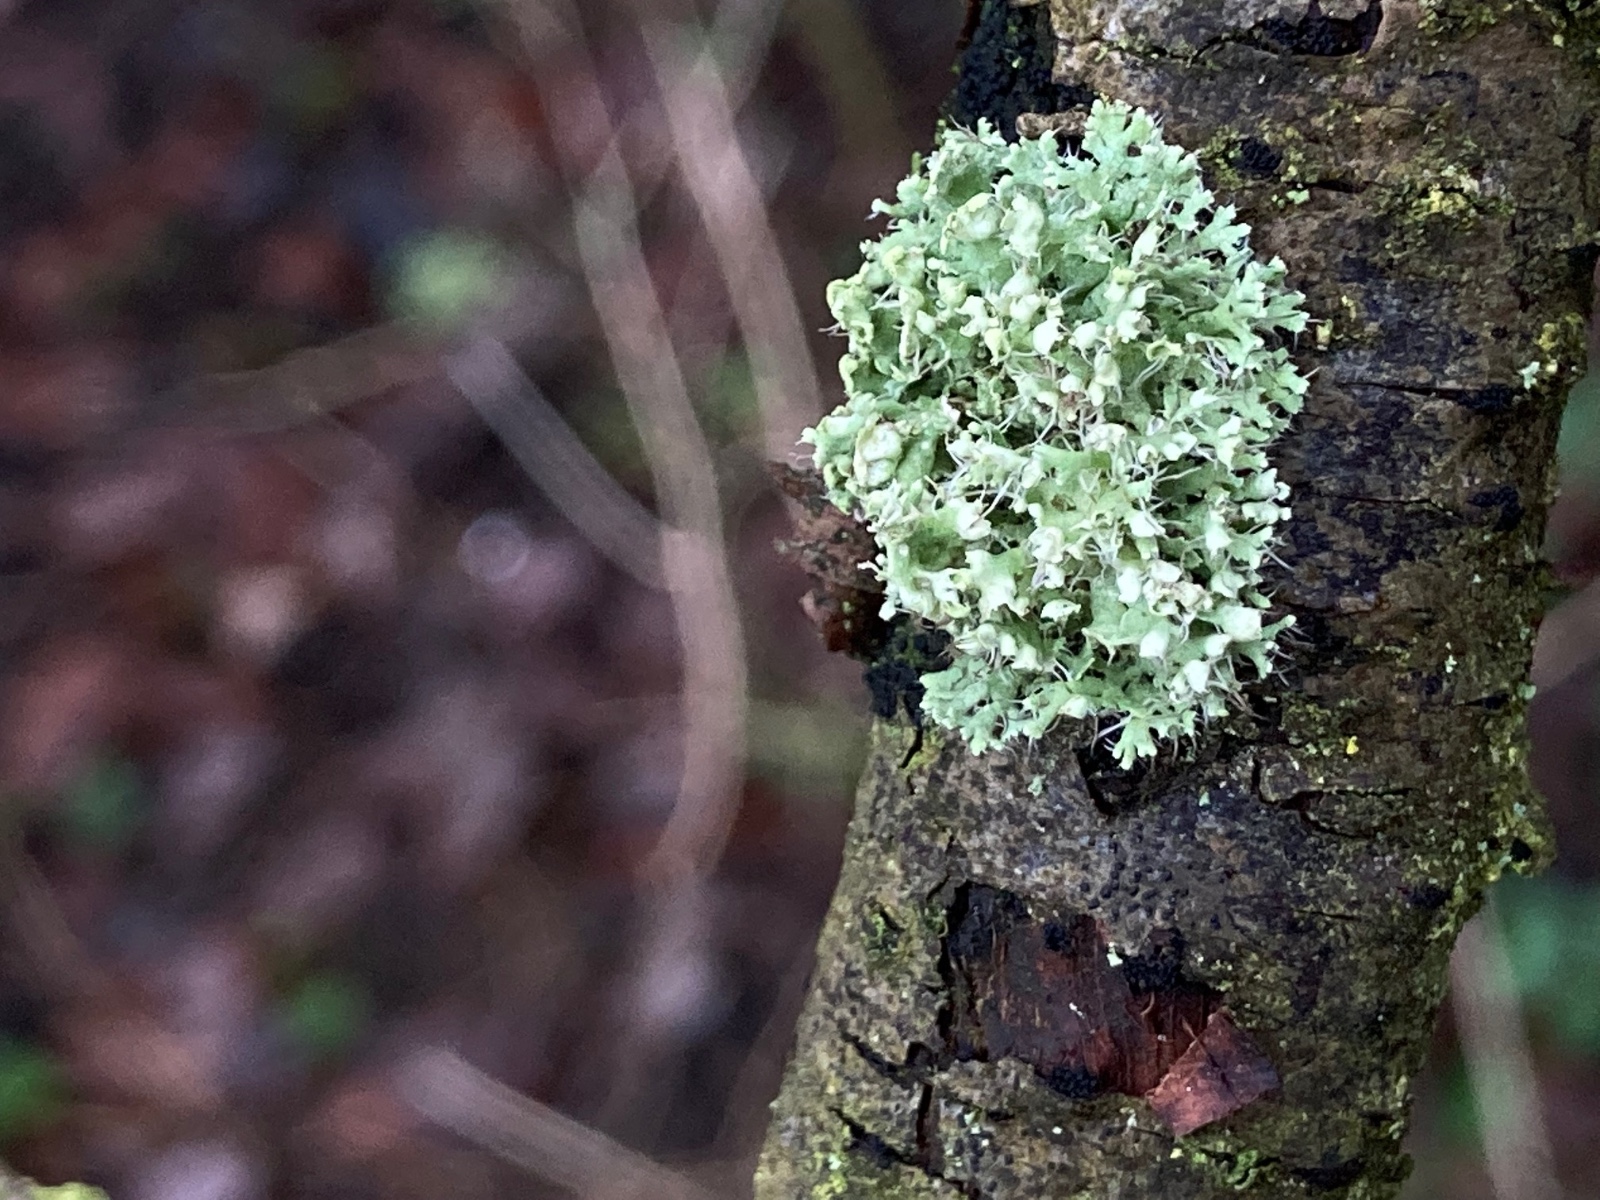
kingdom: Fungi
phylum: Ascomycota
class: Lecanoromycetes
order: Caliciales
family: Physciaceae
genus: Physcia
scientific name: Physcia adscendens
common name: hætte-rosetlav
